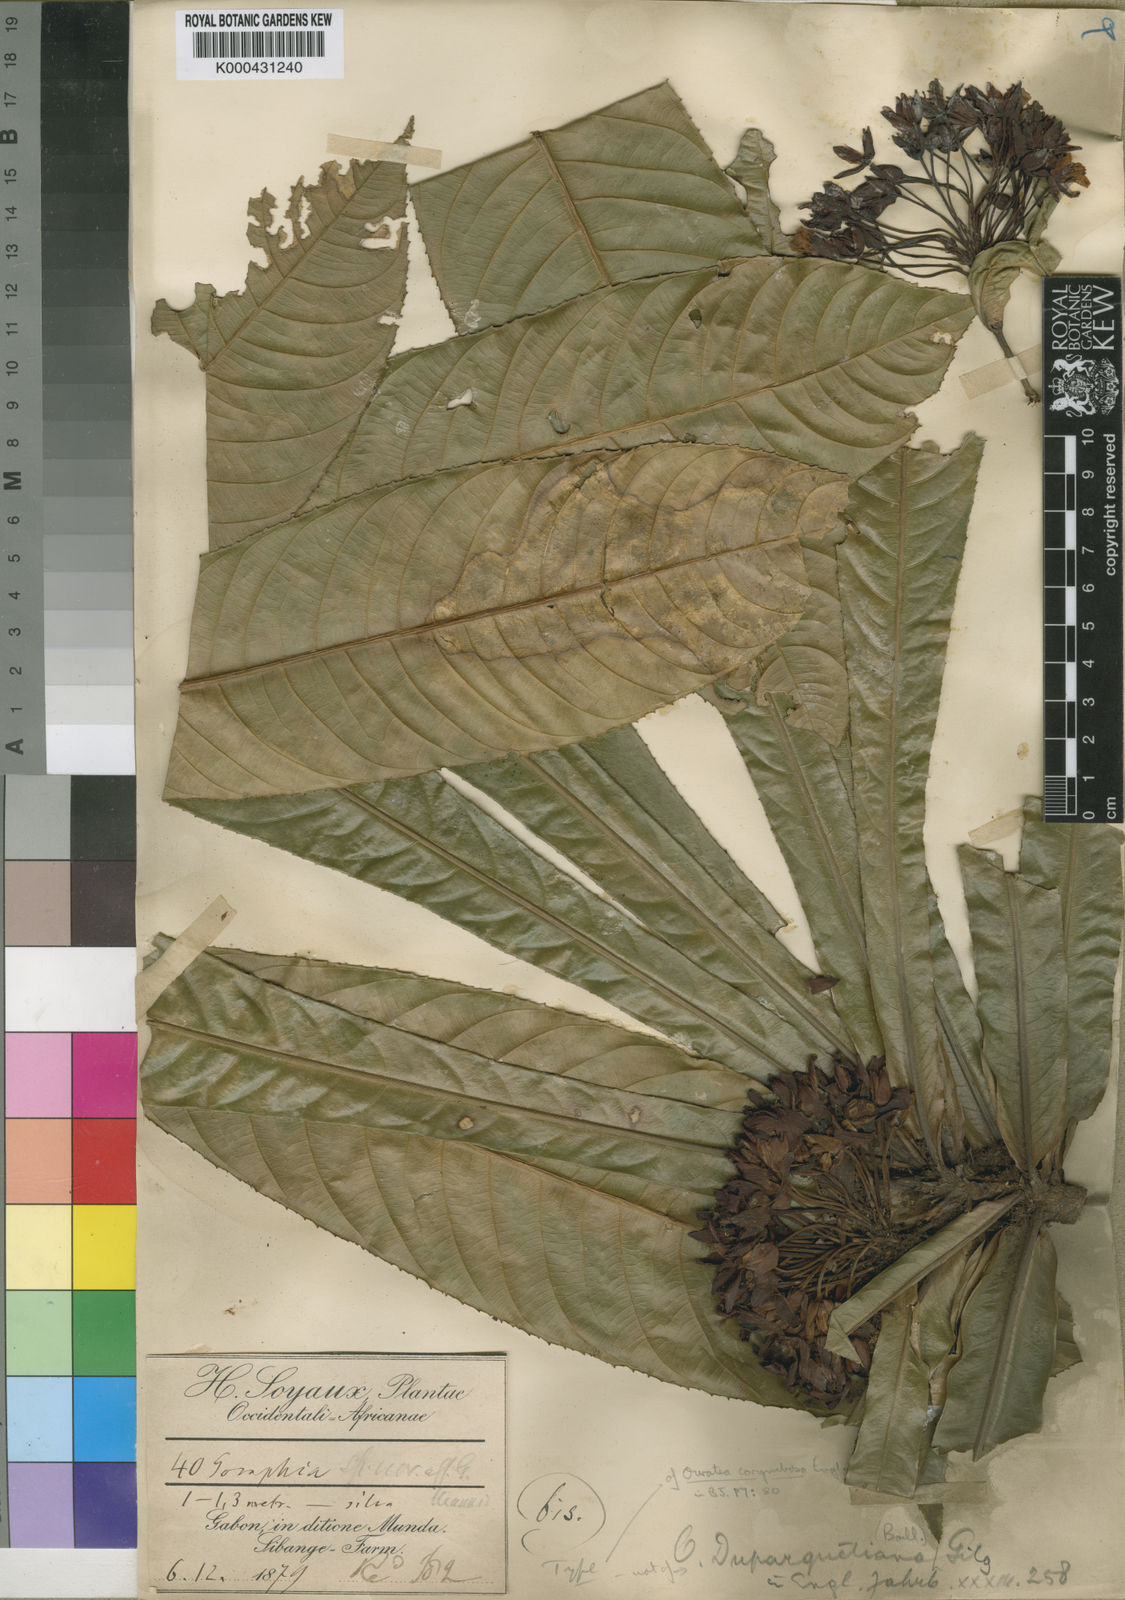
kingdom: Plantae
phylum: Tracheophyta
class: Magnoliopsida
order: Malpighiales
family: Ochnaceae
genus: Campylospermum
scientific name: Campylospermum duparquetianum
